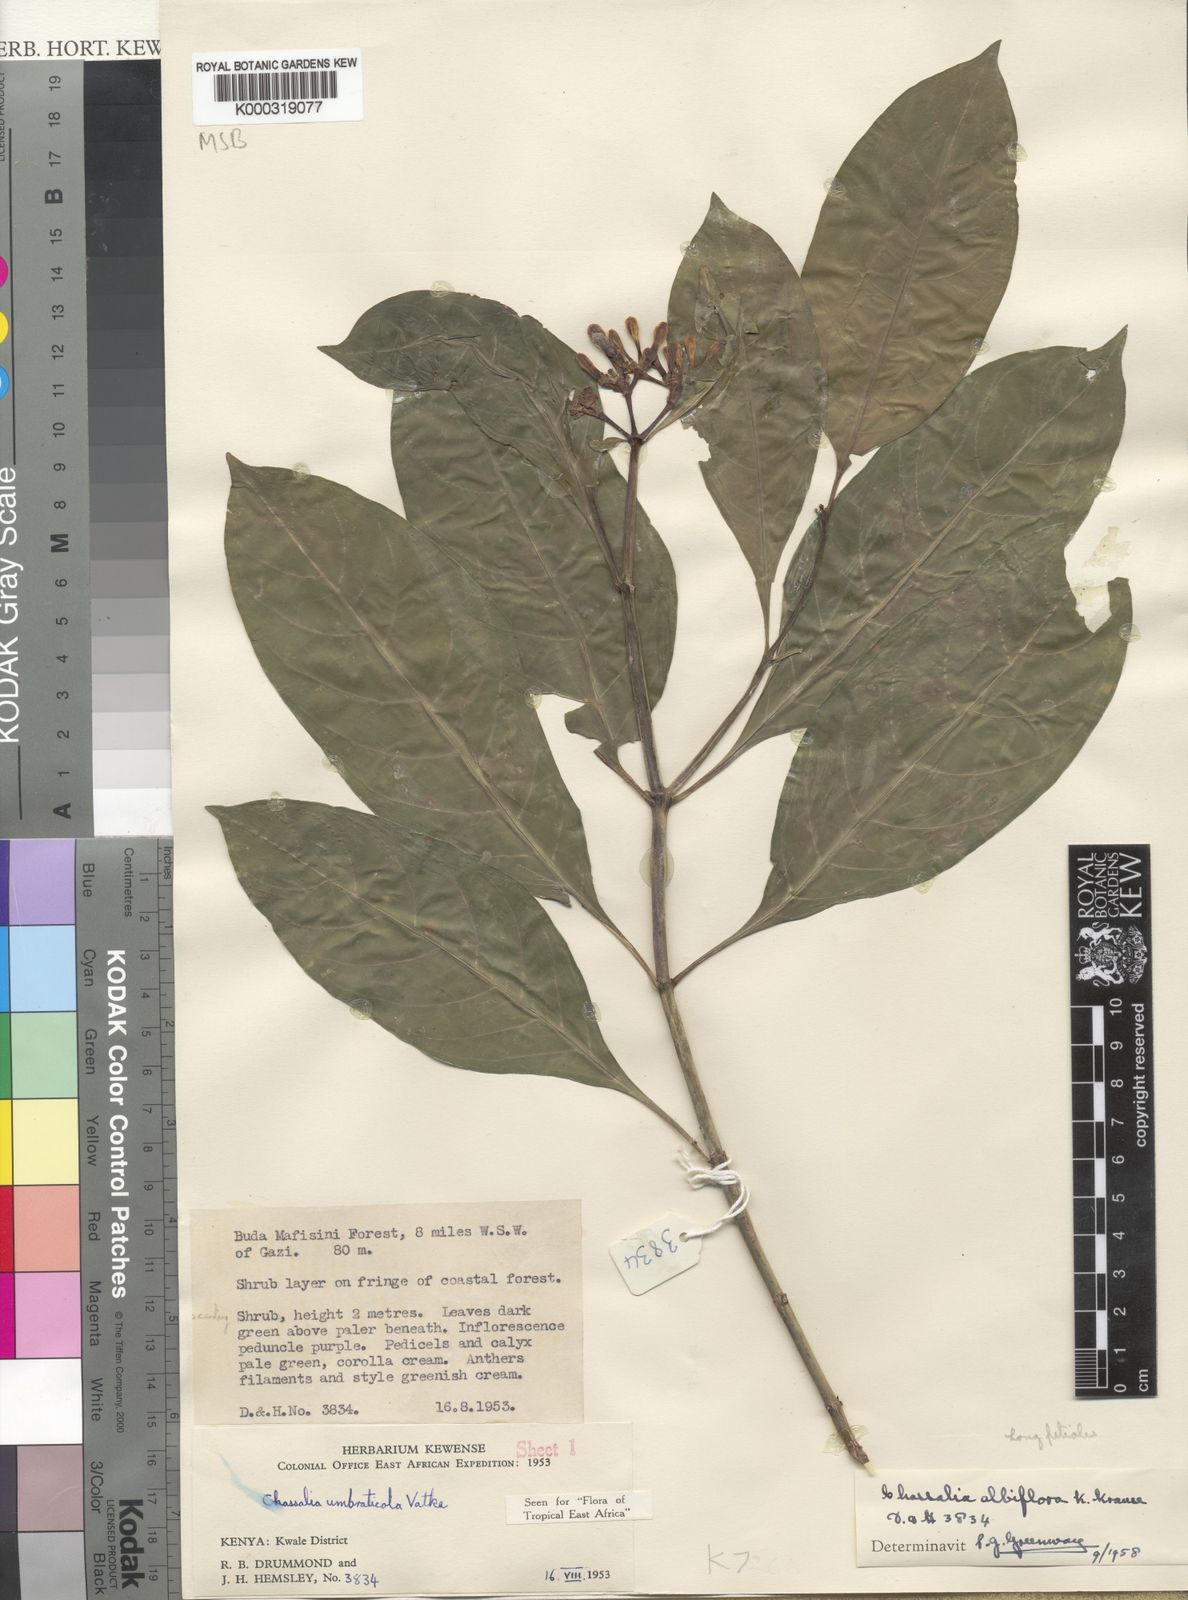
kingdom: Plantae
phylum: Tracheophyta
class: Magnoliopsida
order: Gentianales
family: Rubiaceae
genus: Chassalia
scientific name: Chassalia albiflora
